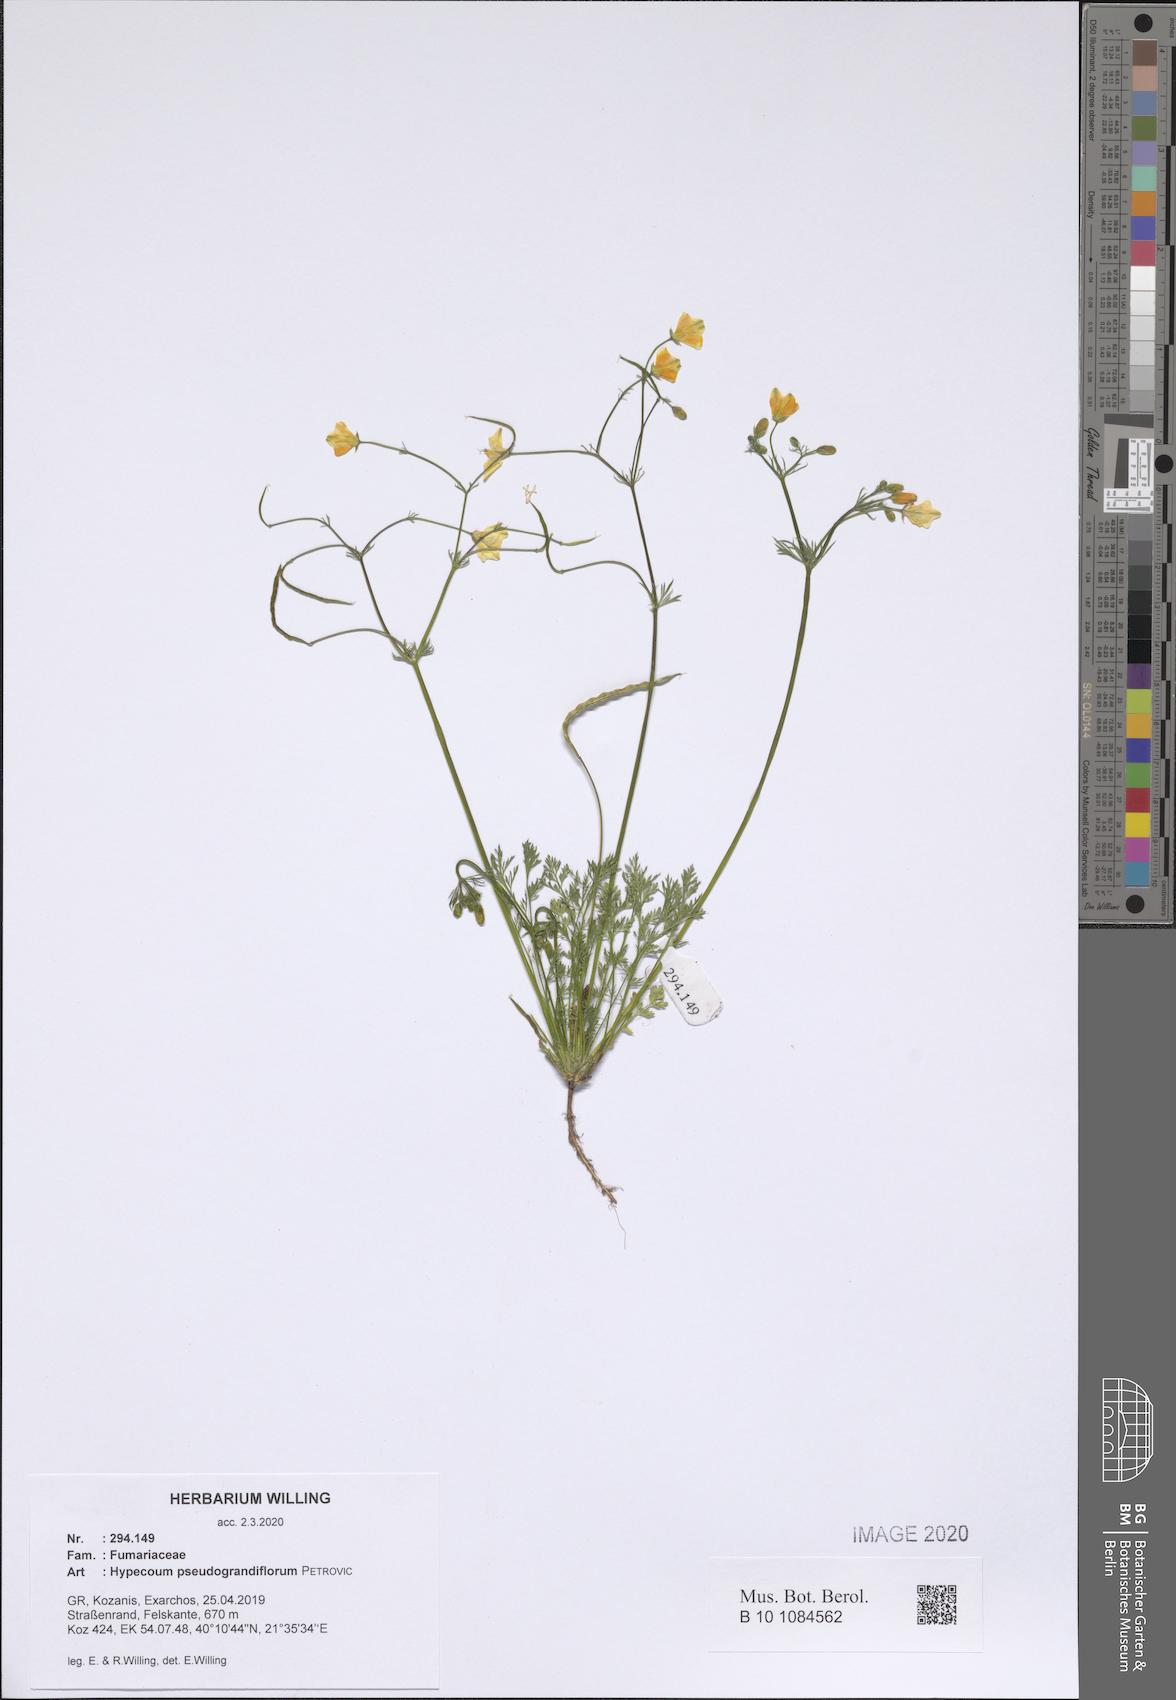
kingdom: Plantae
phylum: Tracheophyta
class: Magnoliopsida
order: Ranunculales
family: Papaveraceae
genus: Hypecoum
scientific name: Hypecoum pseudograndiflorum
